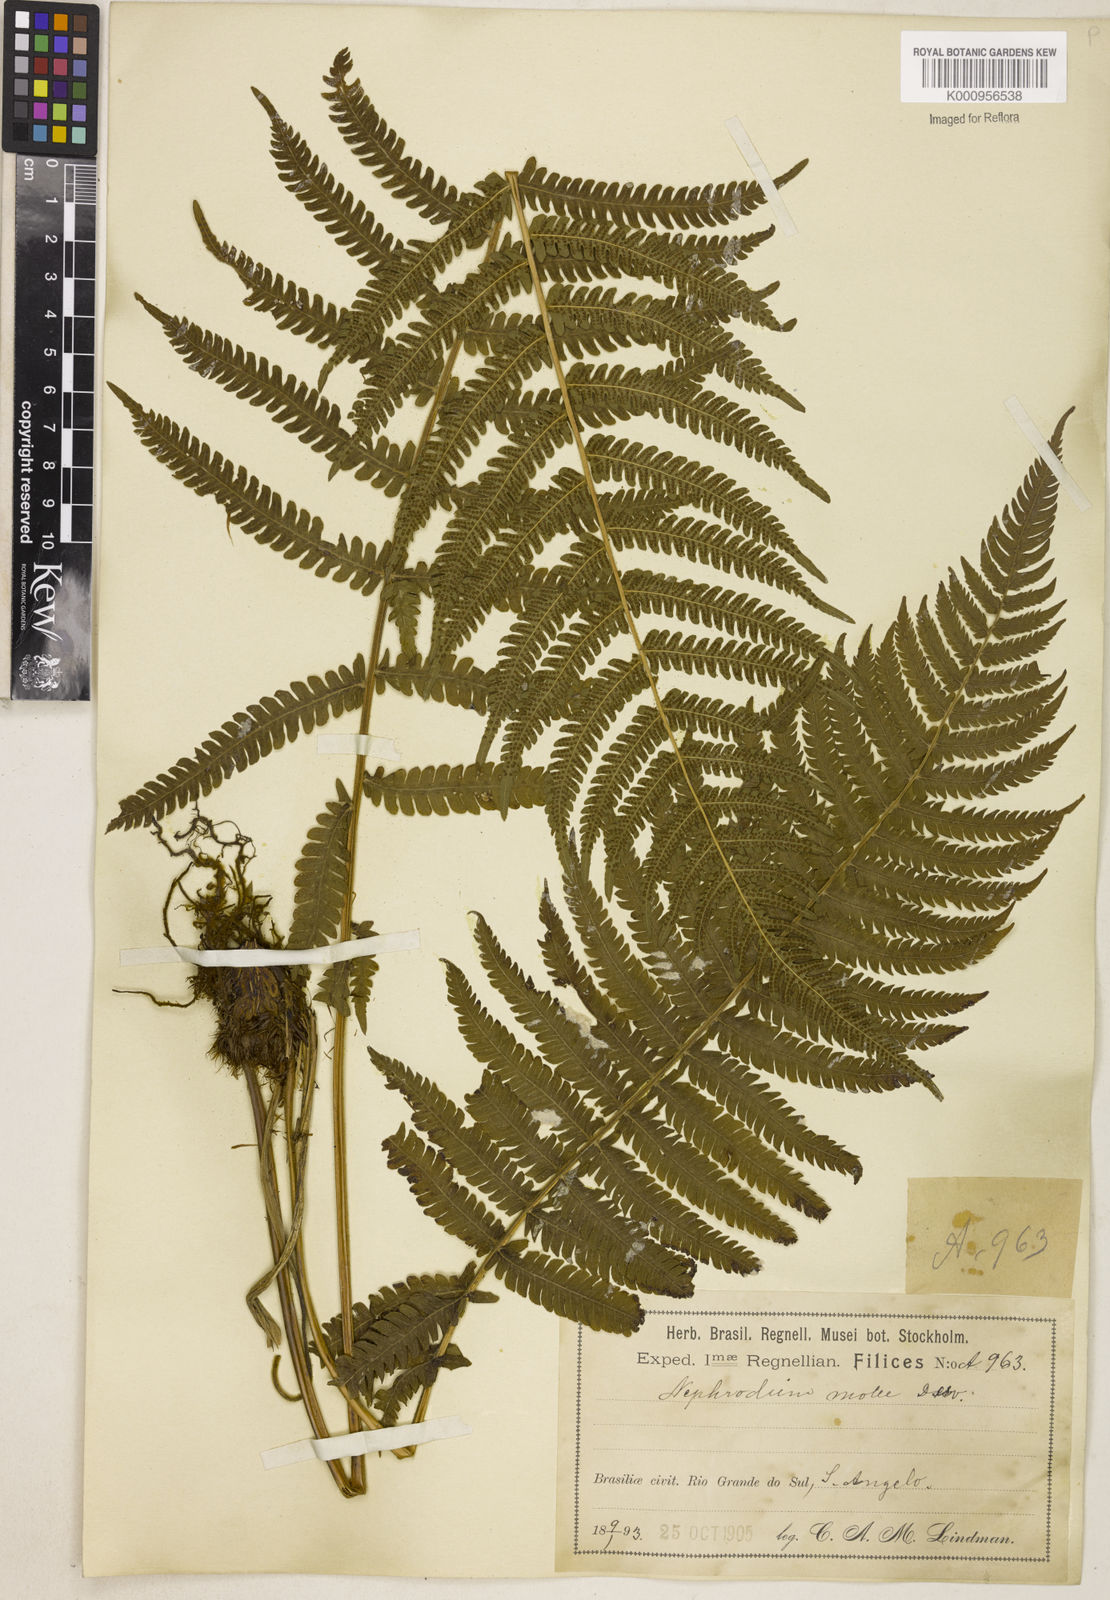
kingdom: Plantae
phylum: Tracheophyta
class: Polypodiopsida
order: Polypodiales
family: Thelypteridaceae
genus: Christella
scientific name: Christella hispidula
